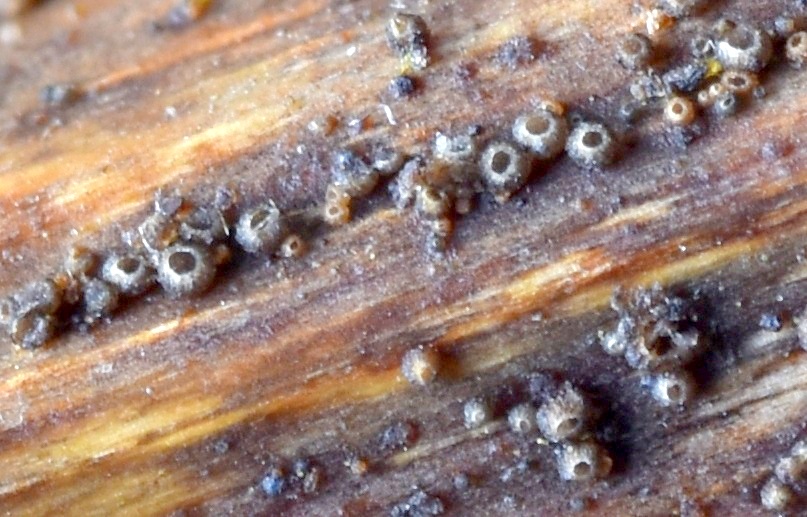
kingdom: Fungi
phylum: Ascomycota
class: Leotiomycetes
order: Helotiales
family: Ploettnerulaceae
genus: Pyrenopeziza
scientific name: Pyrenopeziza millegrana
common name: mjødurt-kerneskive
